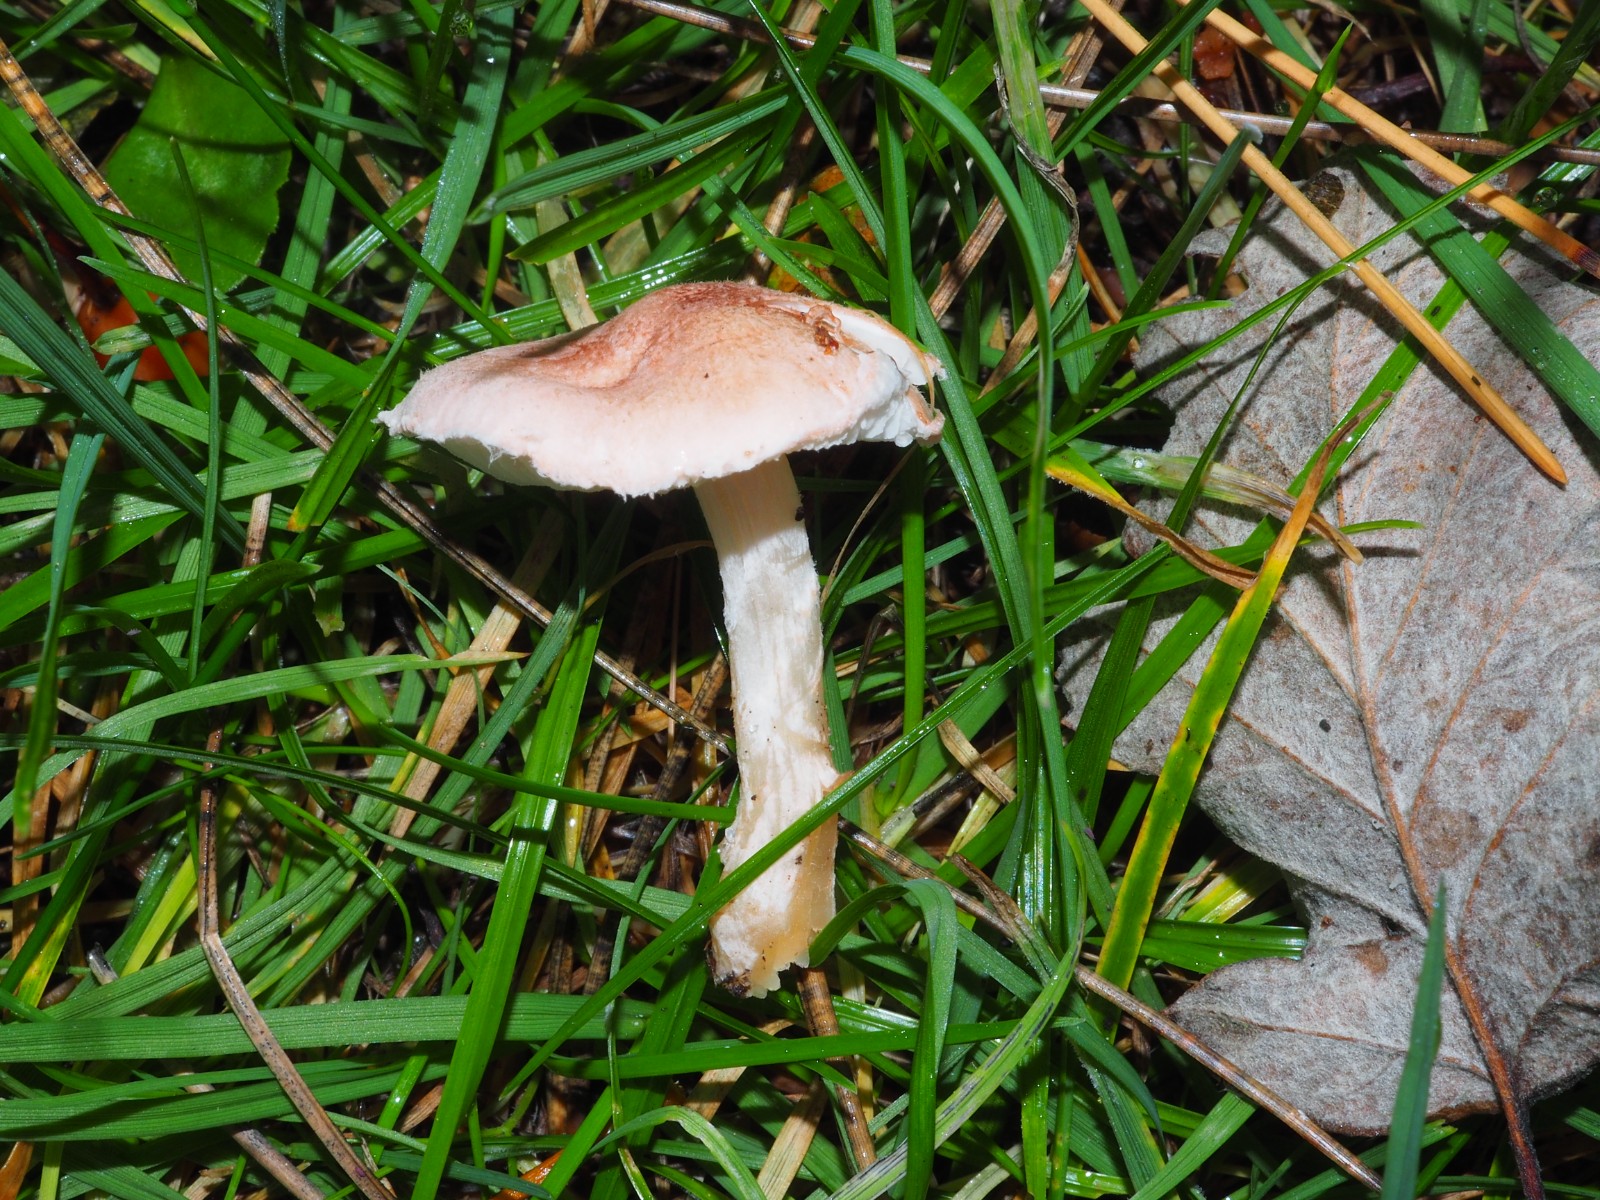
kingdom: Fungi
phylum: Basidiomycota
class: Agaricomycetes
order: Agaricales
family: Agaricaceae
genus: Lepiota
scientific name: Lepiota subincarnata
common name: kødfarvet parasolhat
